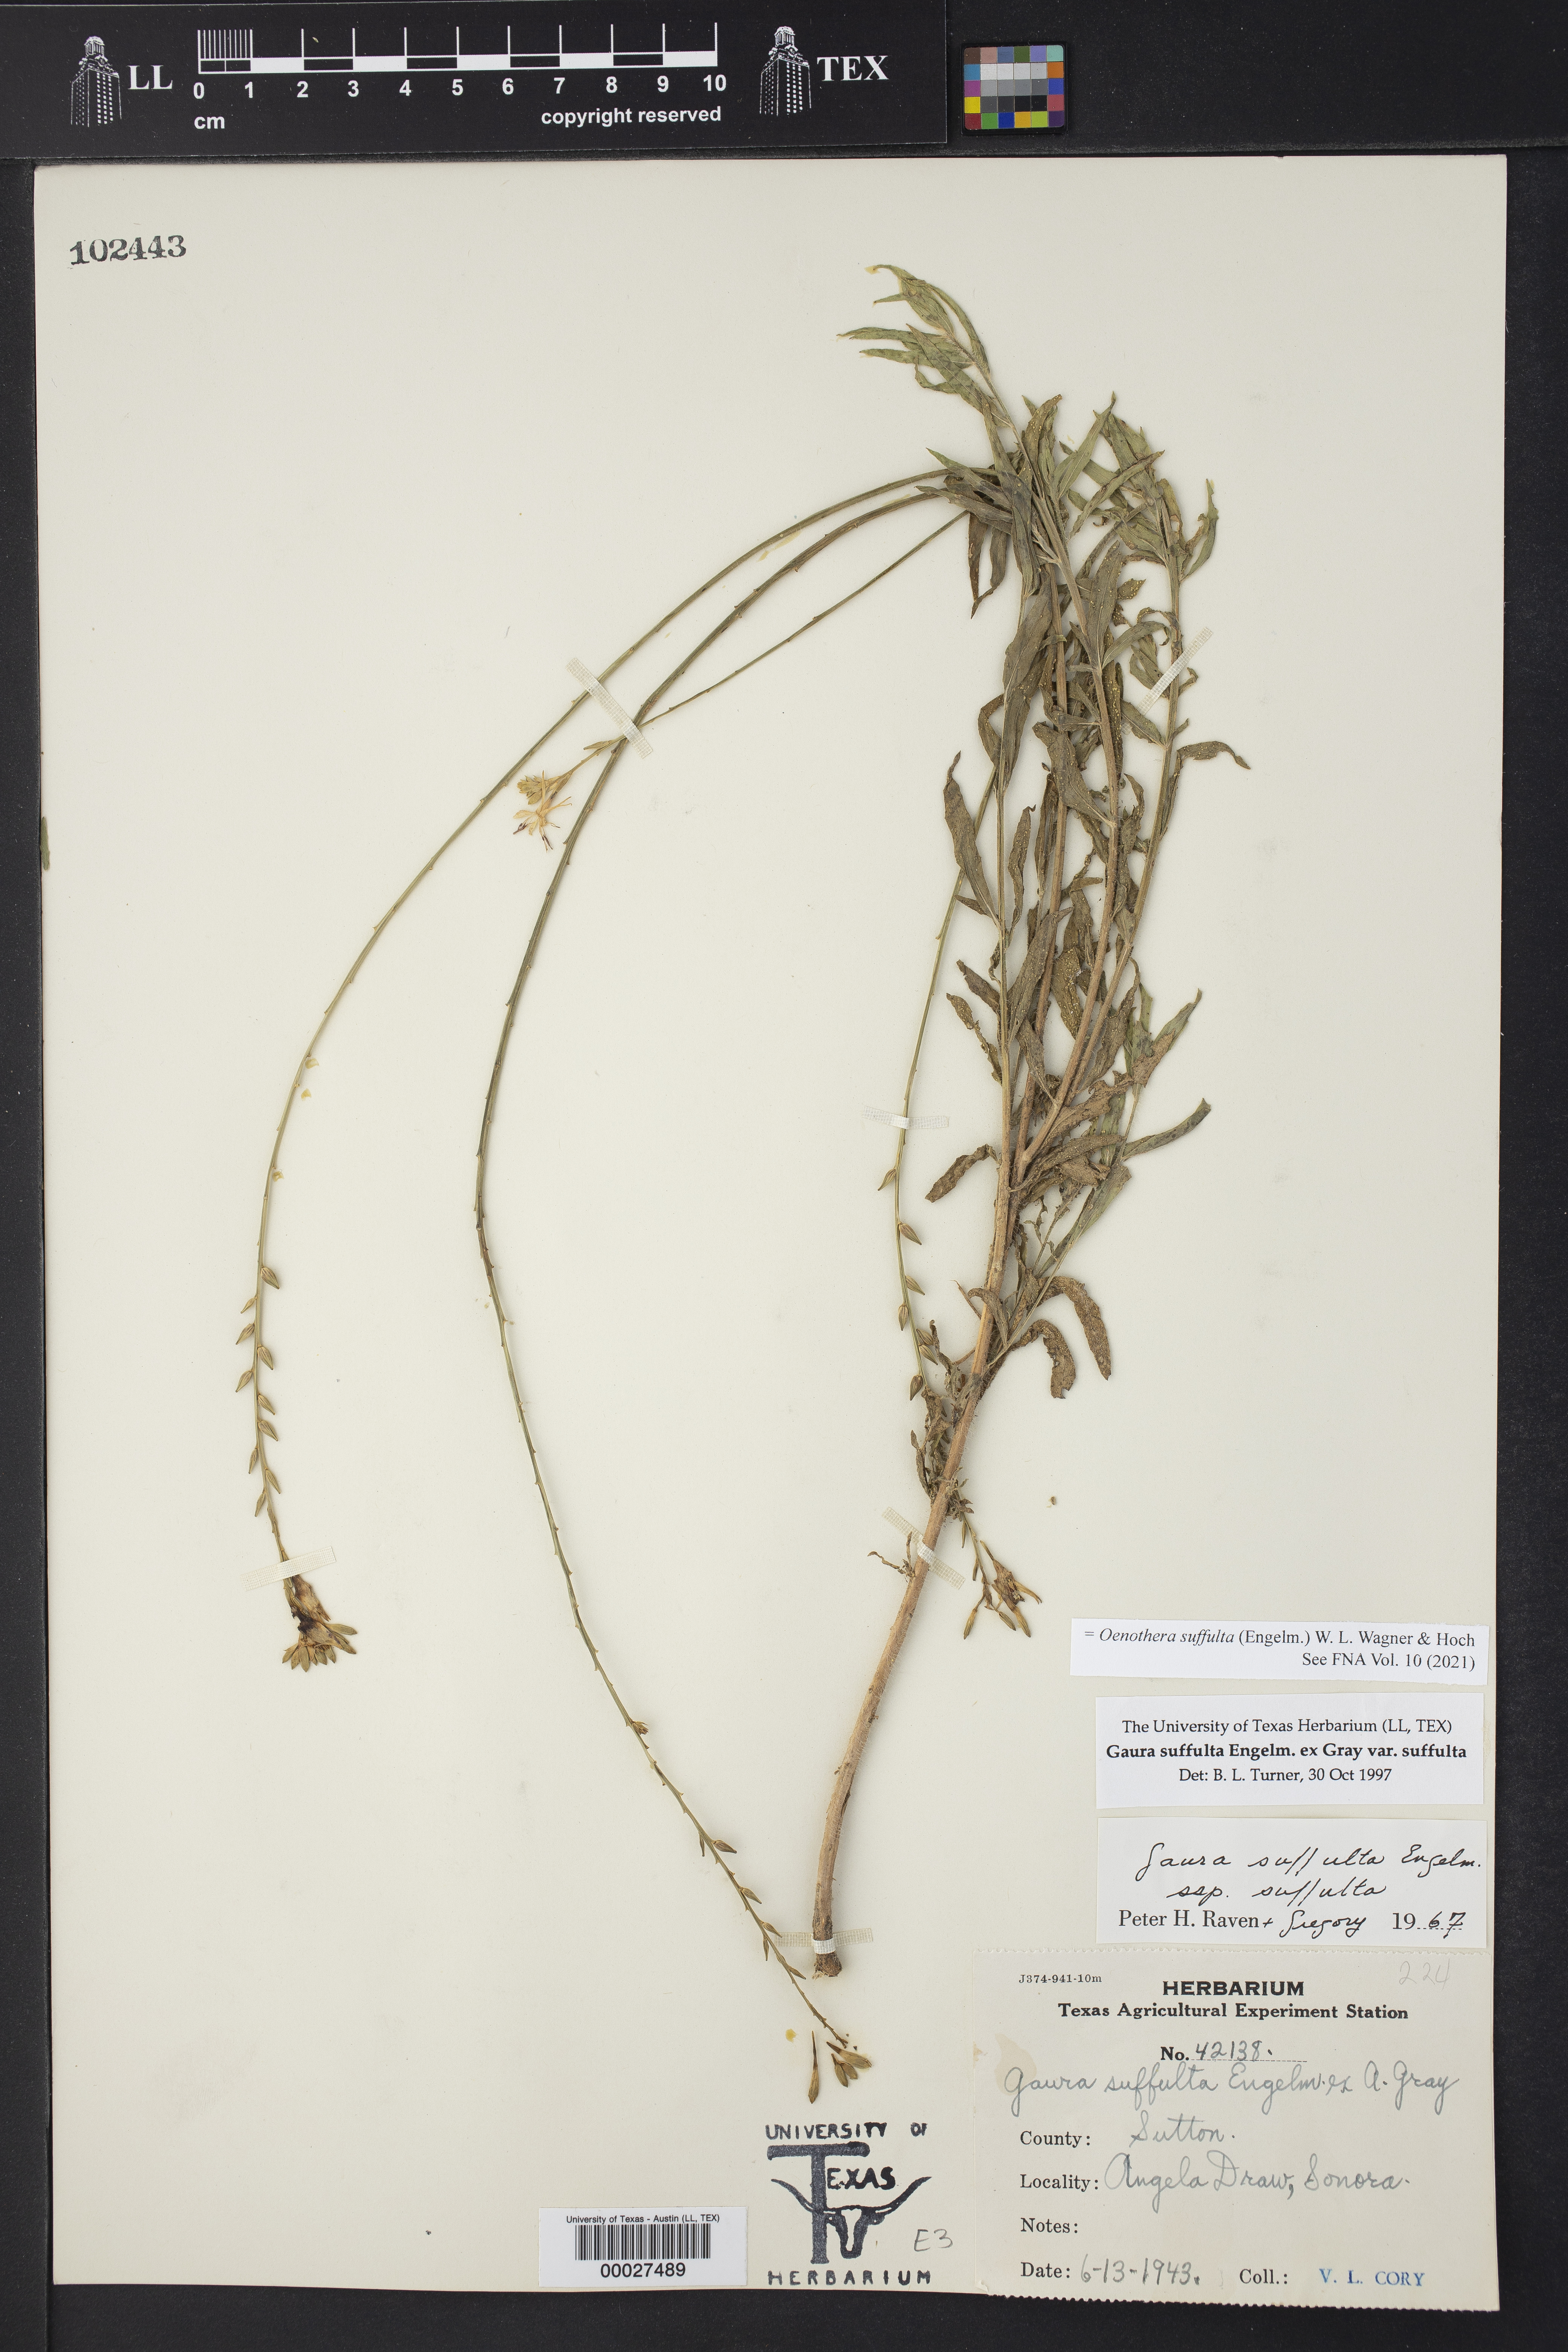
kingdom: Plantae
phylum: Tracheophyta
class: Magnoliopsida
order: Myrtales
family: Onagraceae
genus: Oenothera
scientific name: Oenothera suffulta
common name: Kisses
